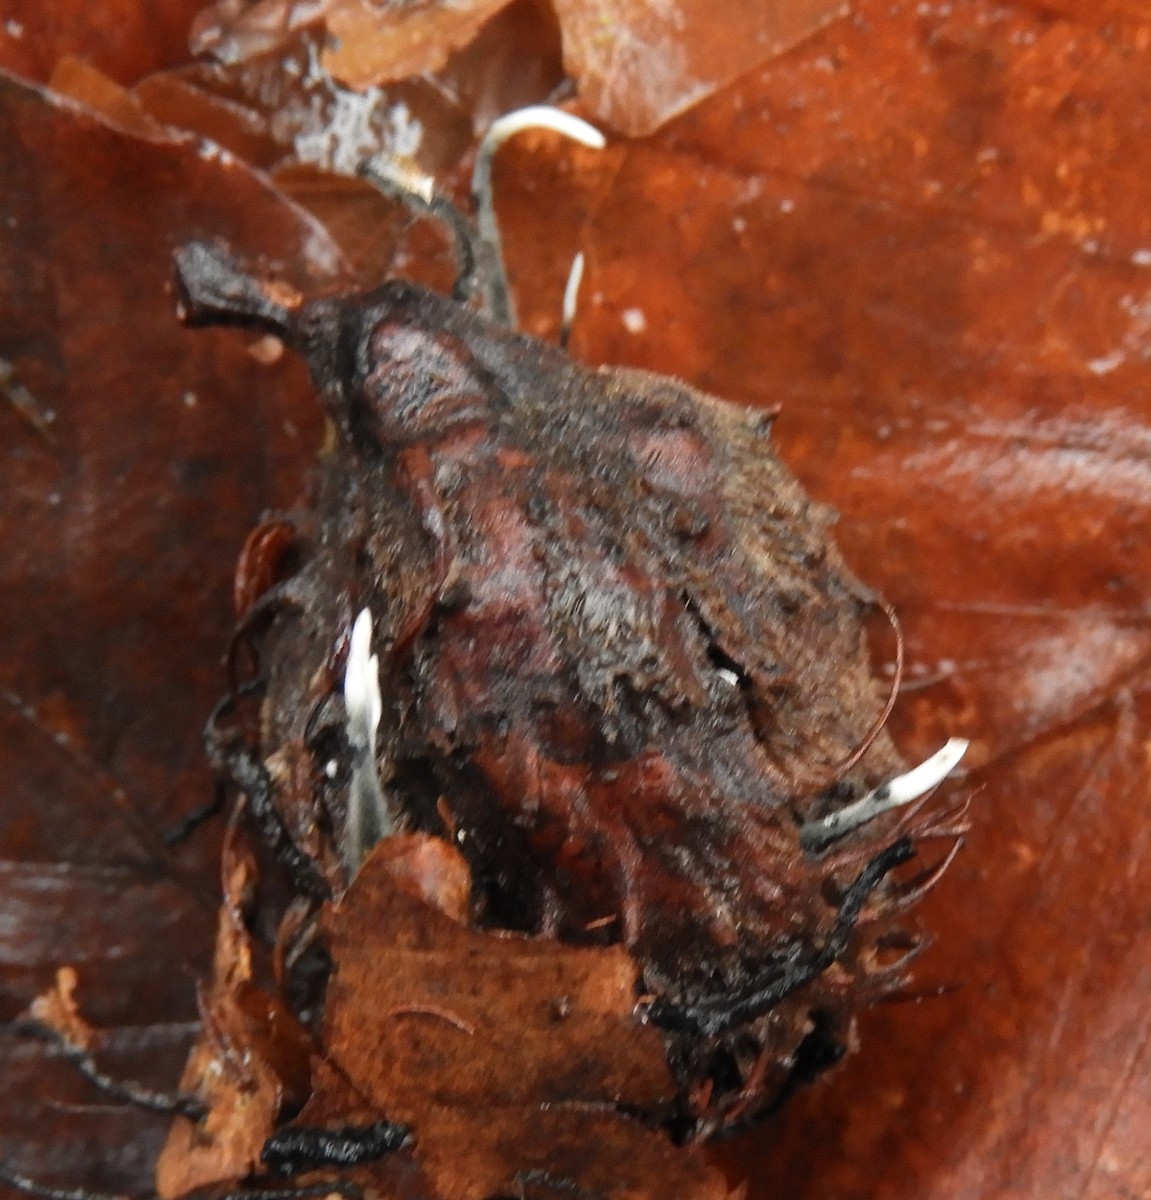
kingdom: Fungi
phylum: Ascomycota
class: Sordariomycetes
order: Xylariales
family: Xylariaceae
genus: Xylaria
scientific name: Xylaria carpophila
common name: bogskål-stødsvamp
